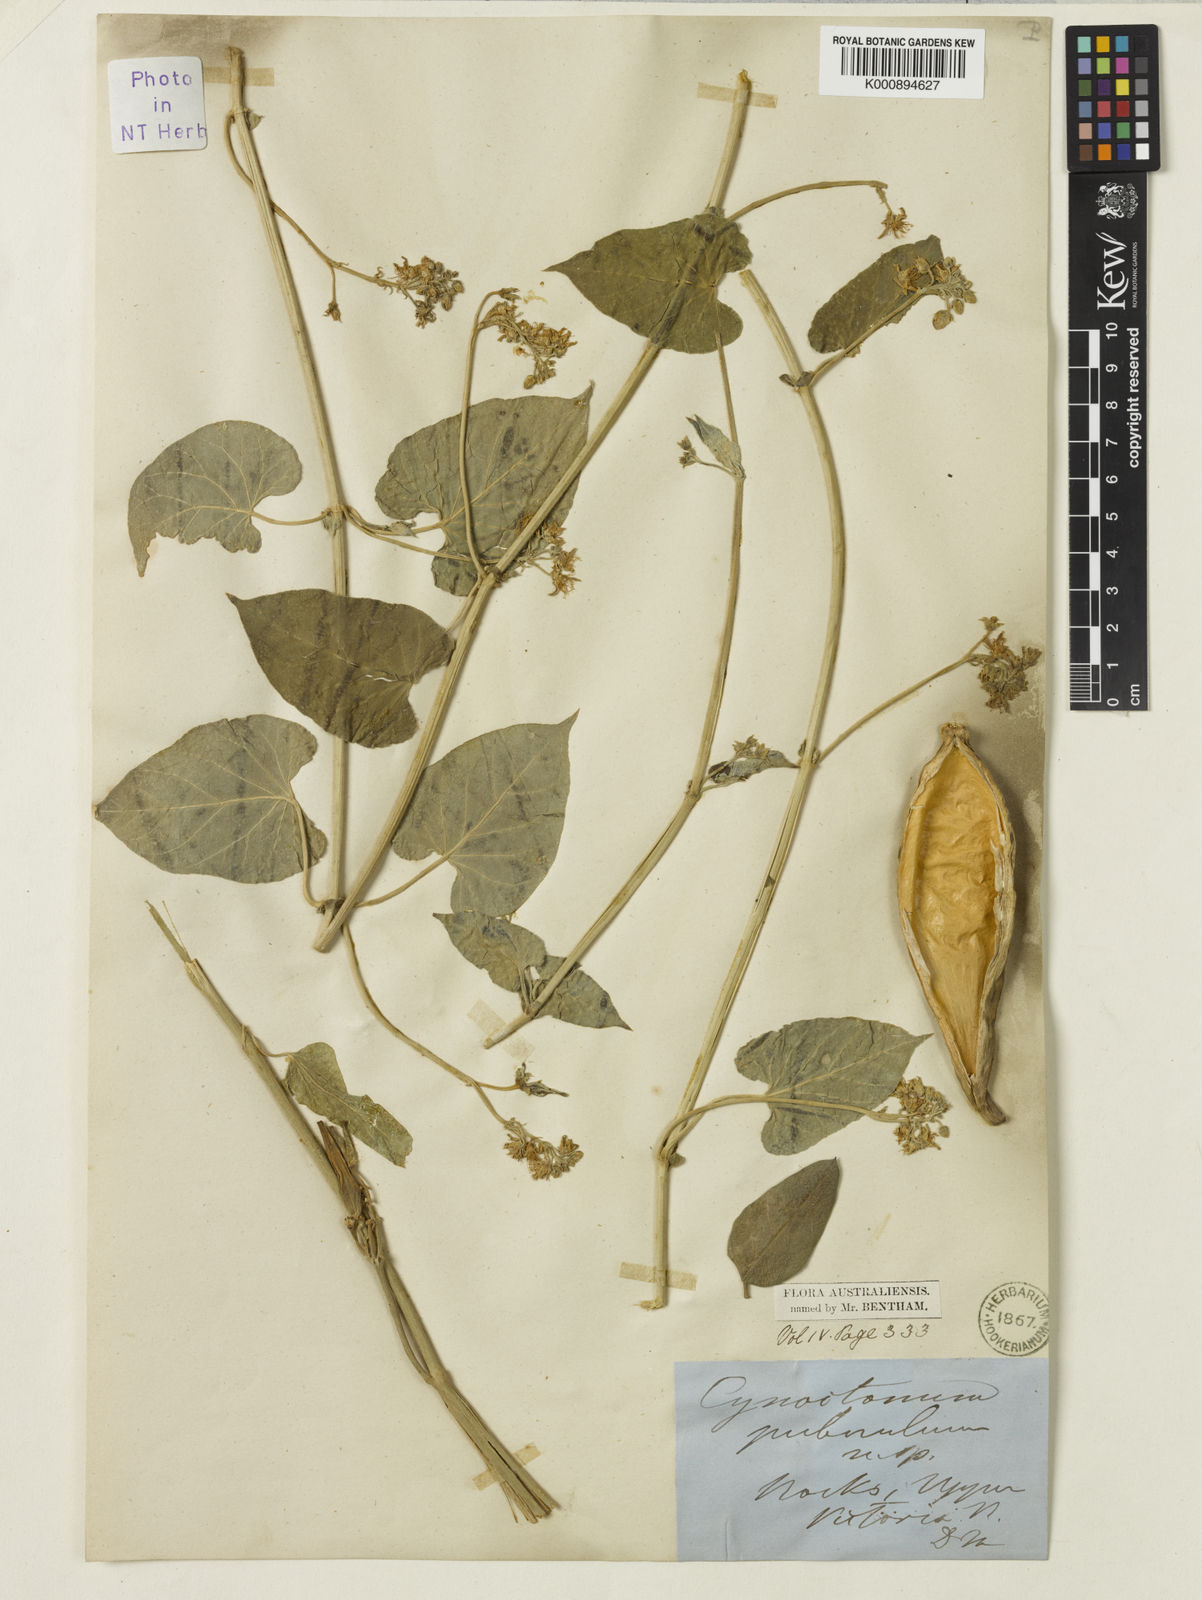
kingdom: Plantae
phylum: Tracheophyta
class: Magnoliopsida
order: Gentianales
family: Apocynaceae
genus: Vincetoxicum
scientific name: Vincetoxicum puberulum
